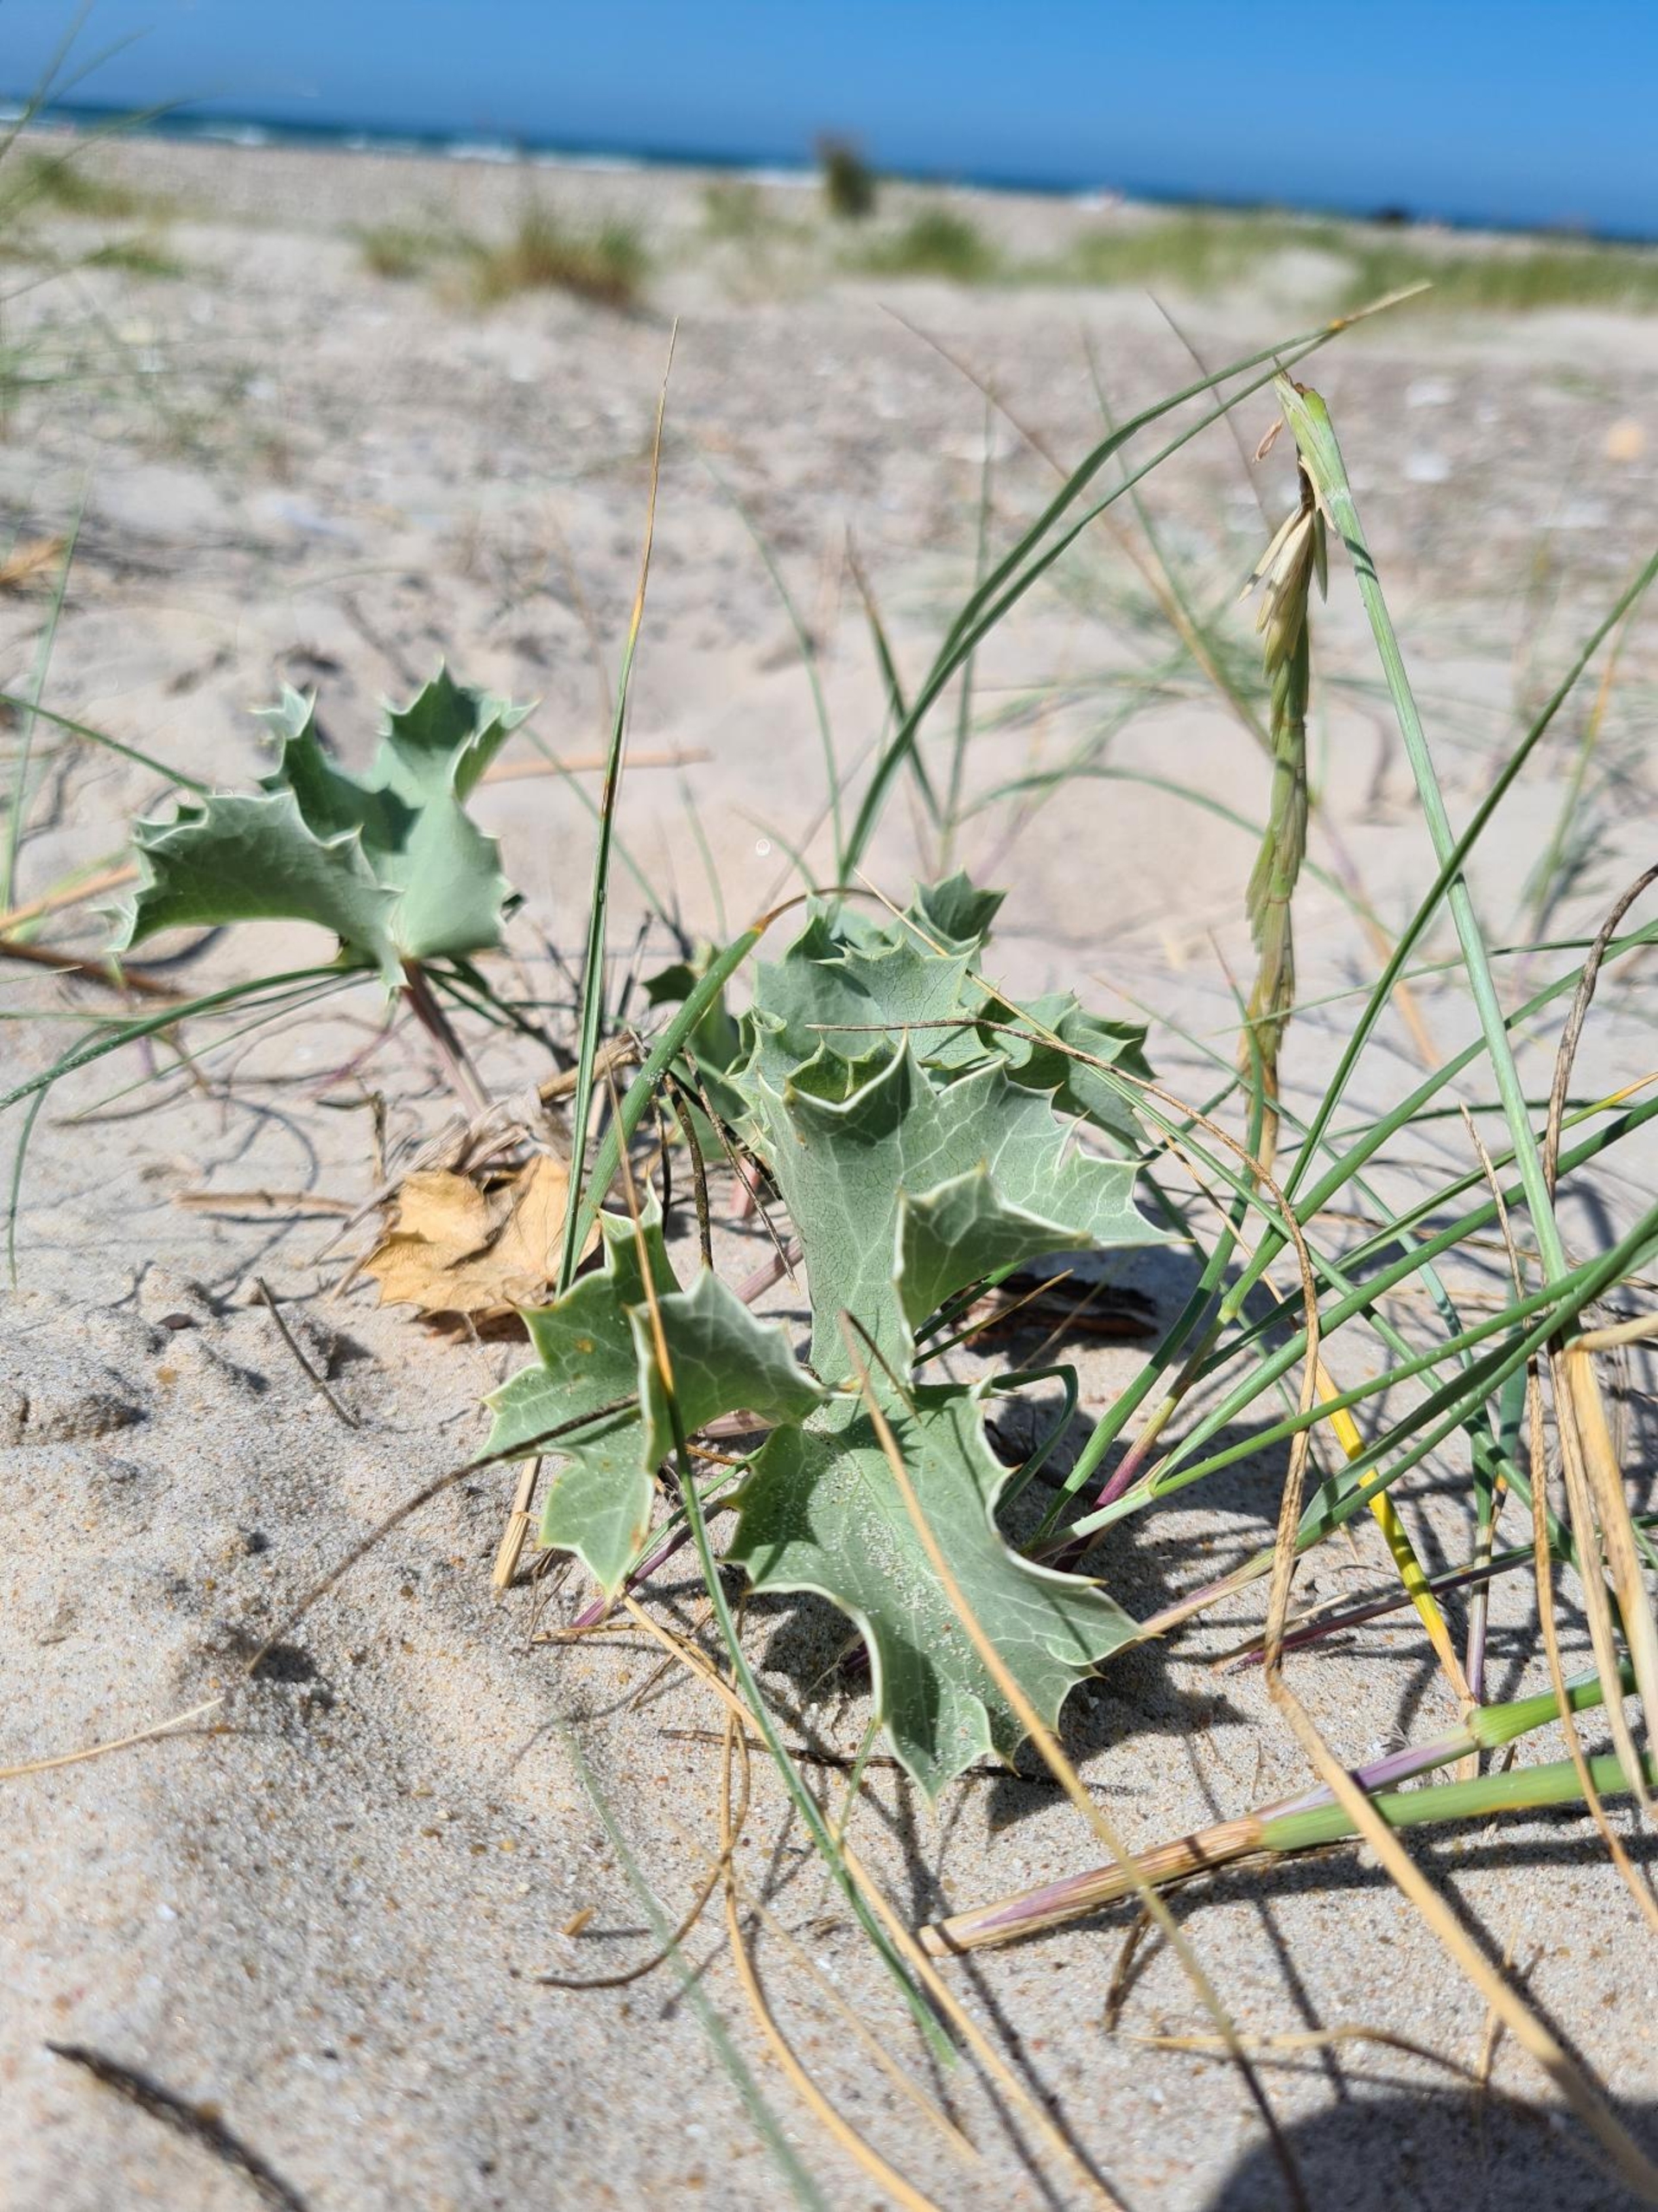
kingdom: Plantae
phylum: Tracheophyta
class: Magnoliopsida
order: Apiales
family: Apiaceae
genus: Eryngium
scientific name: Eryngium maritimum
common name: Strand-mandstro
